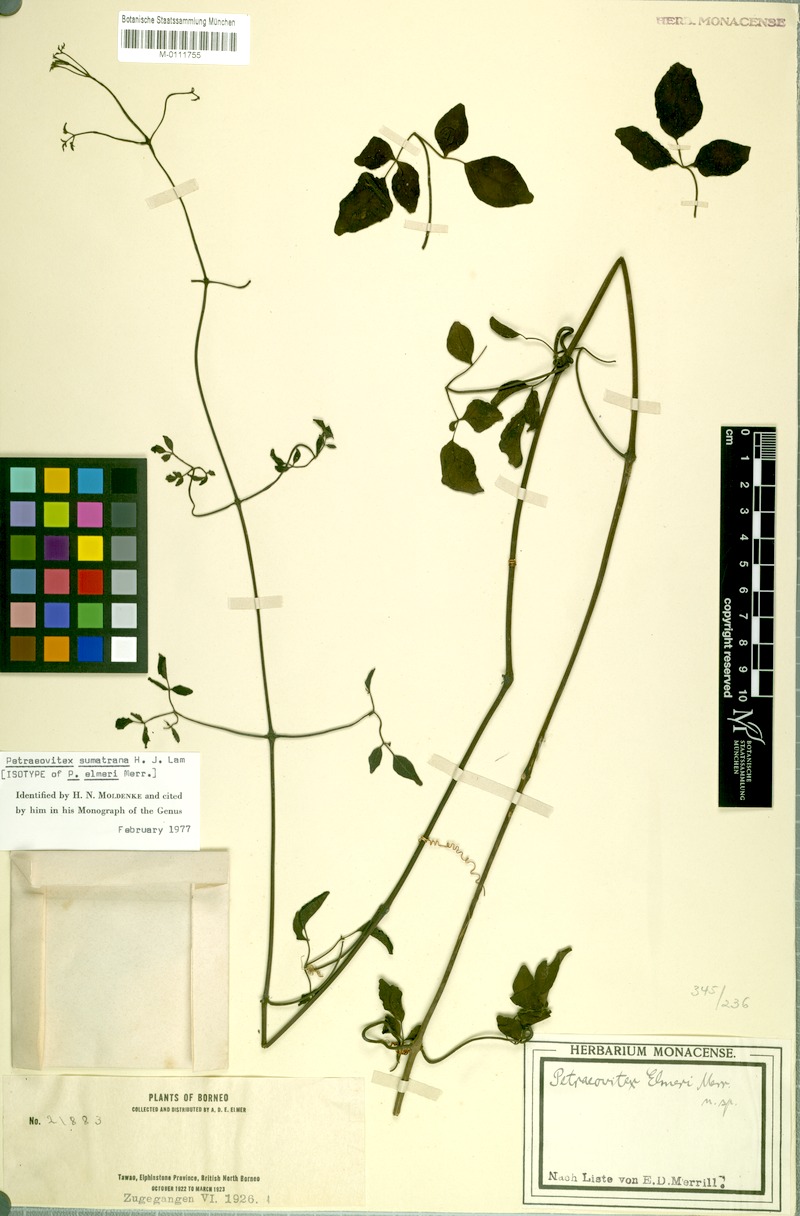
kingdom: Plantae
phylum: Tracheophyta
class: Magnoliopsida
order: Lamiales
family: Lamiaceae
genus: Petraeovitex
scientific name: Petraeovitex sumatrana
